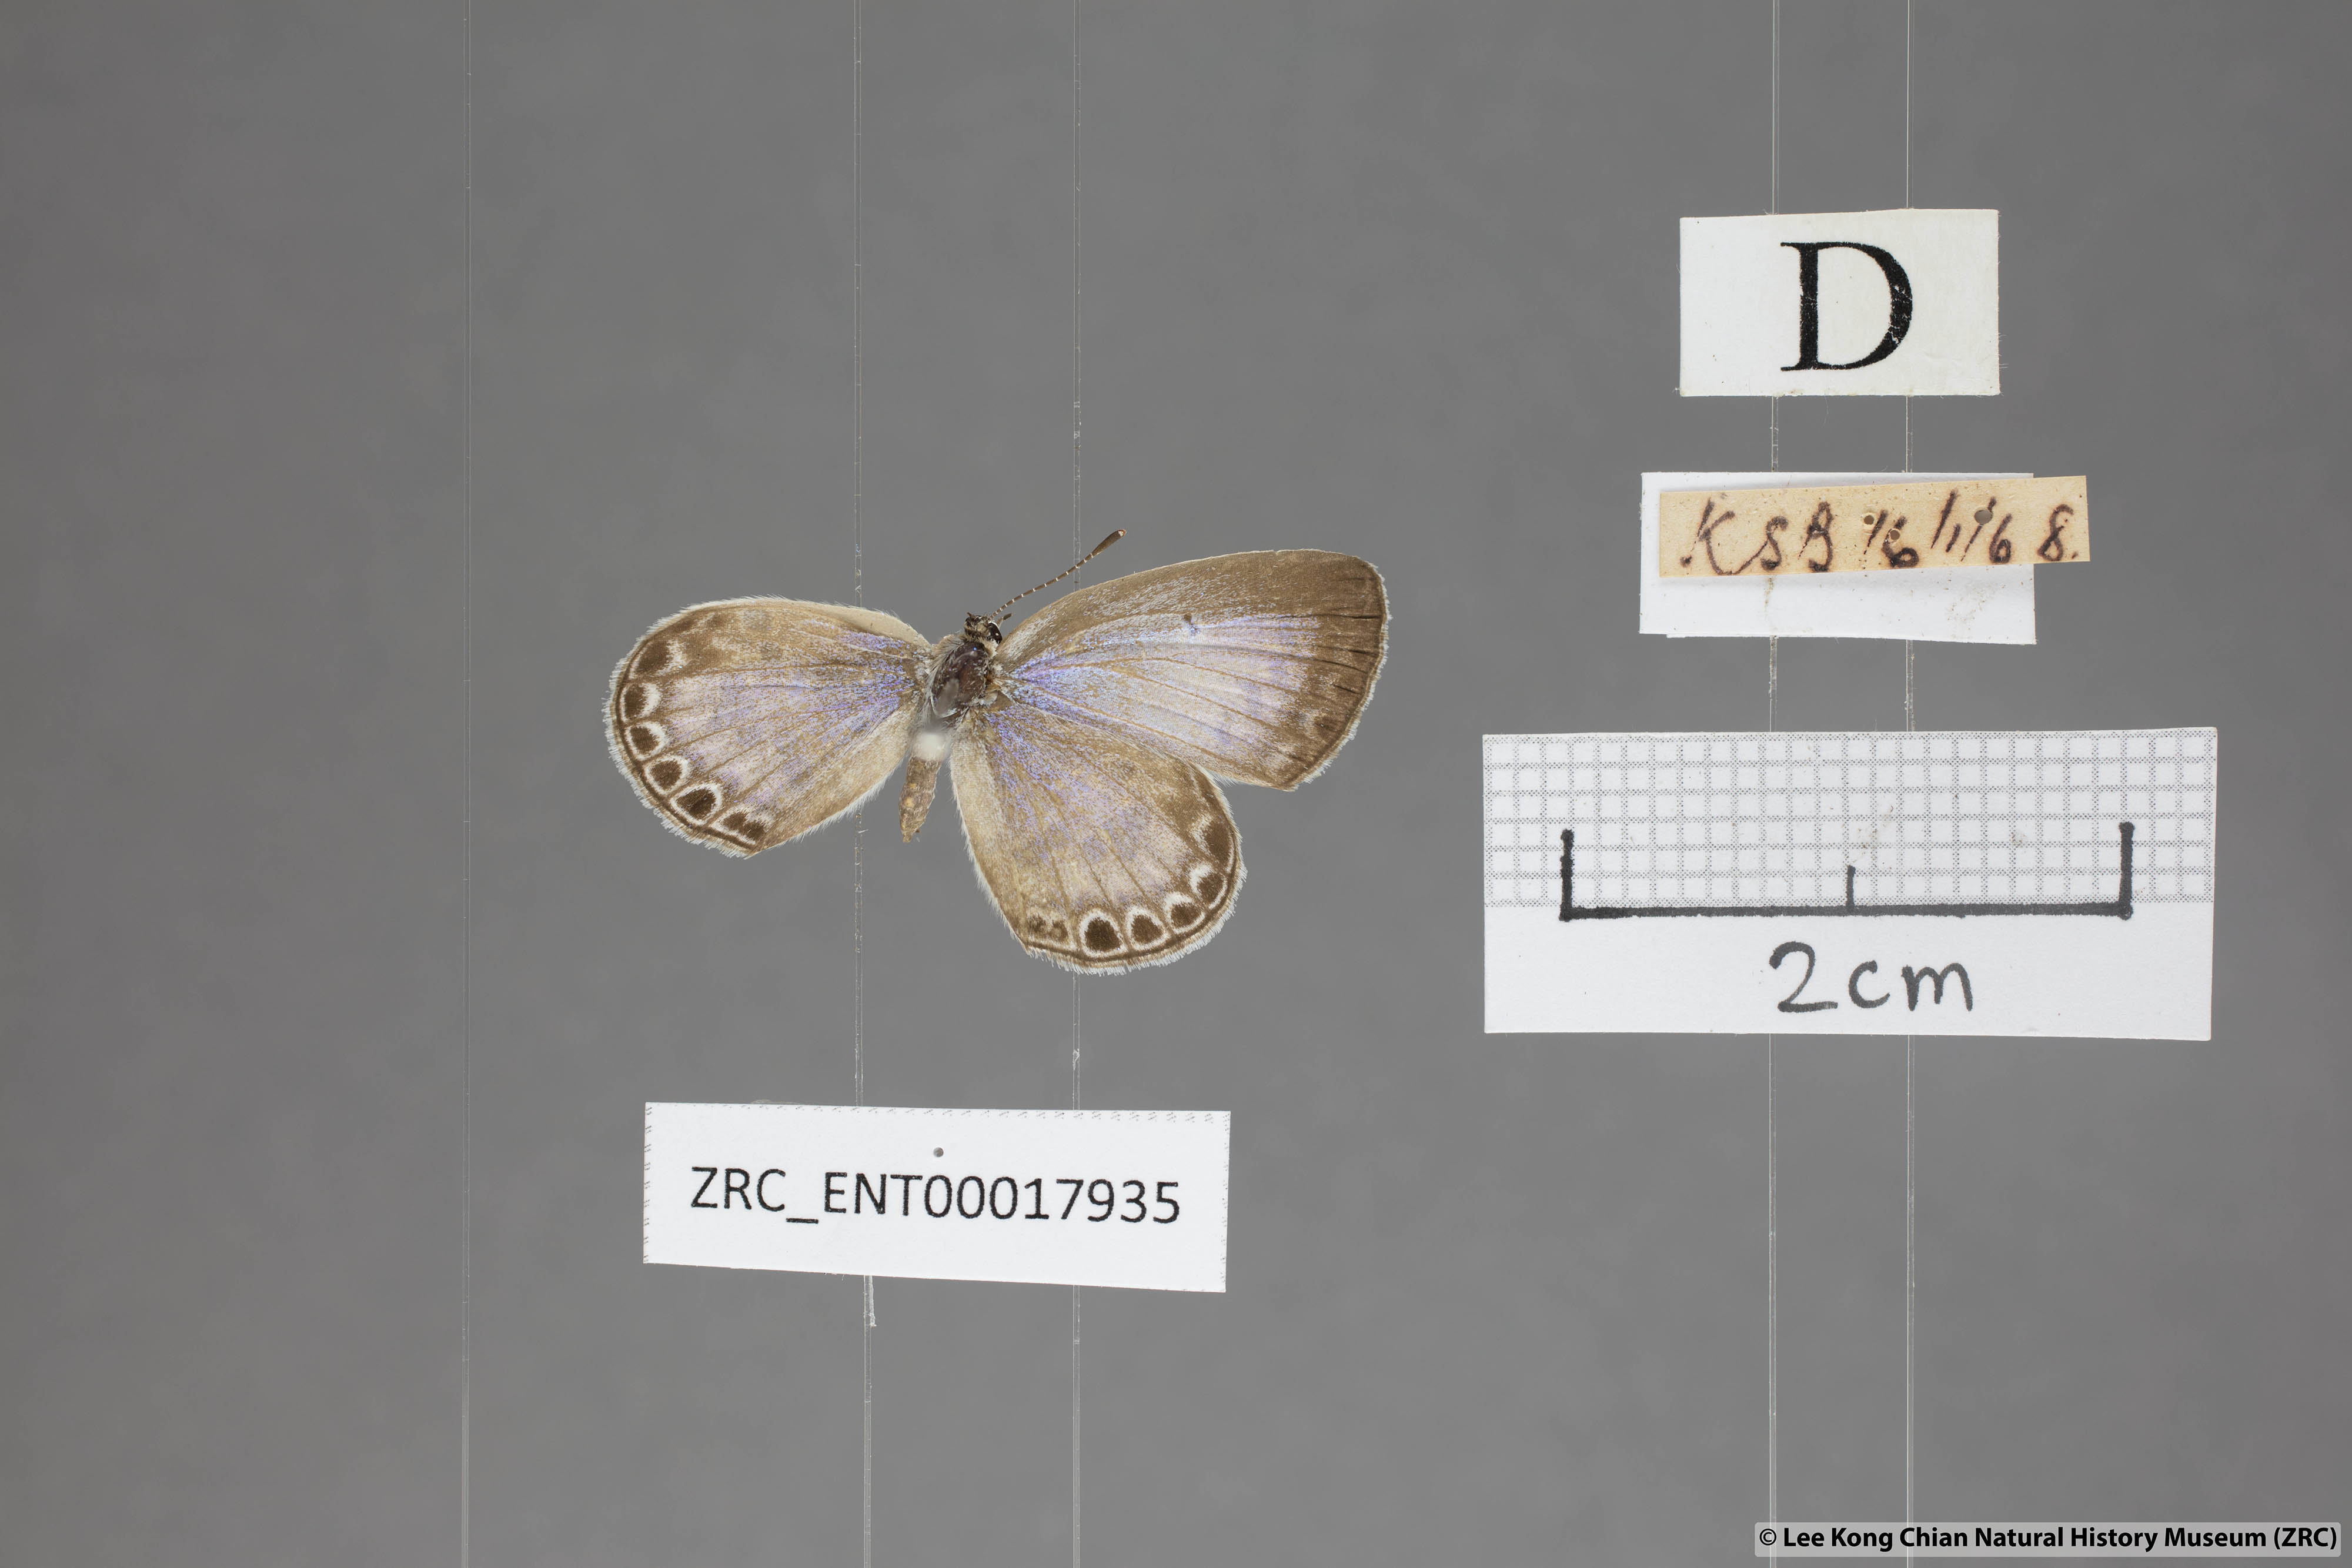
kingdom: Animalia
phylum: Arthropoda
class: Insecta
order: Lepidoptera
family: Lycaenidae
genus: Chilades
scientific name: Chilades laius
